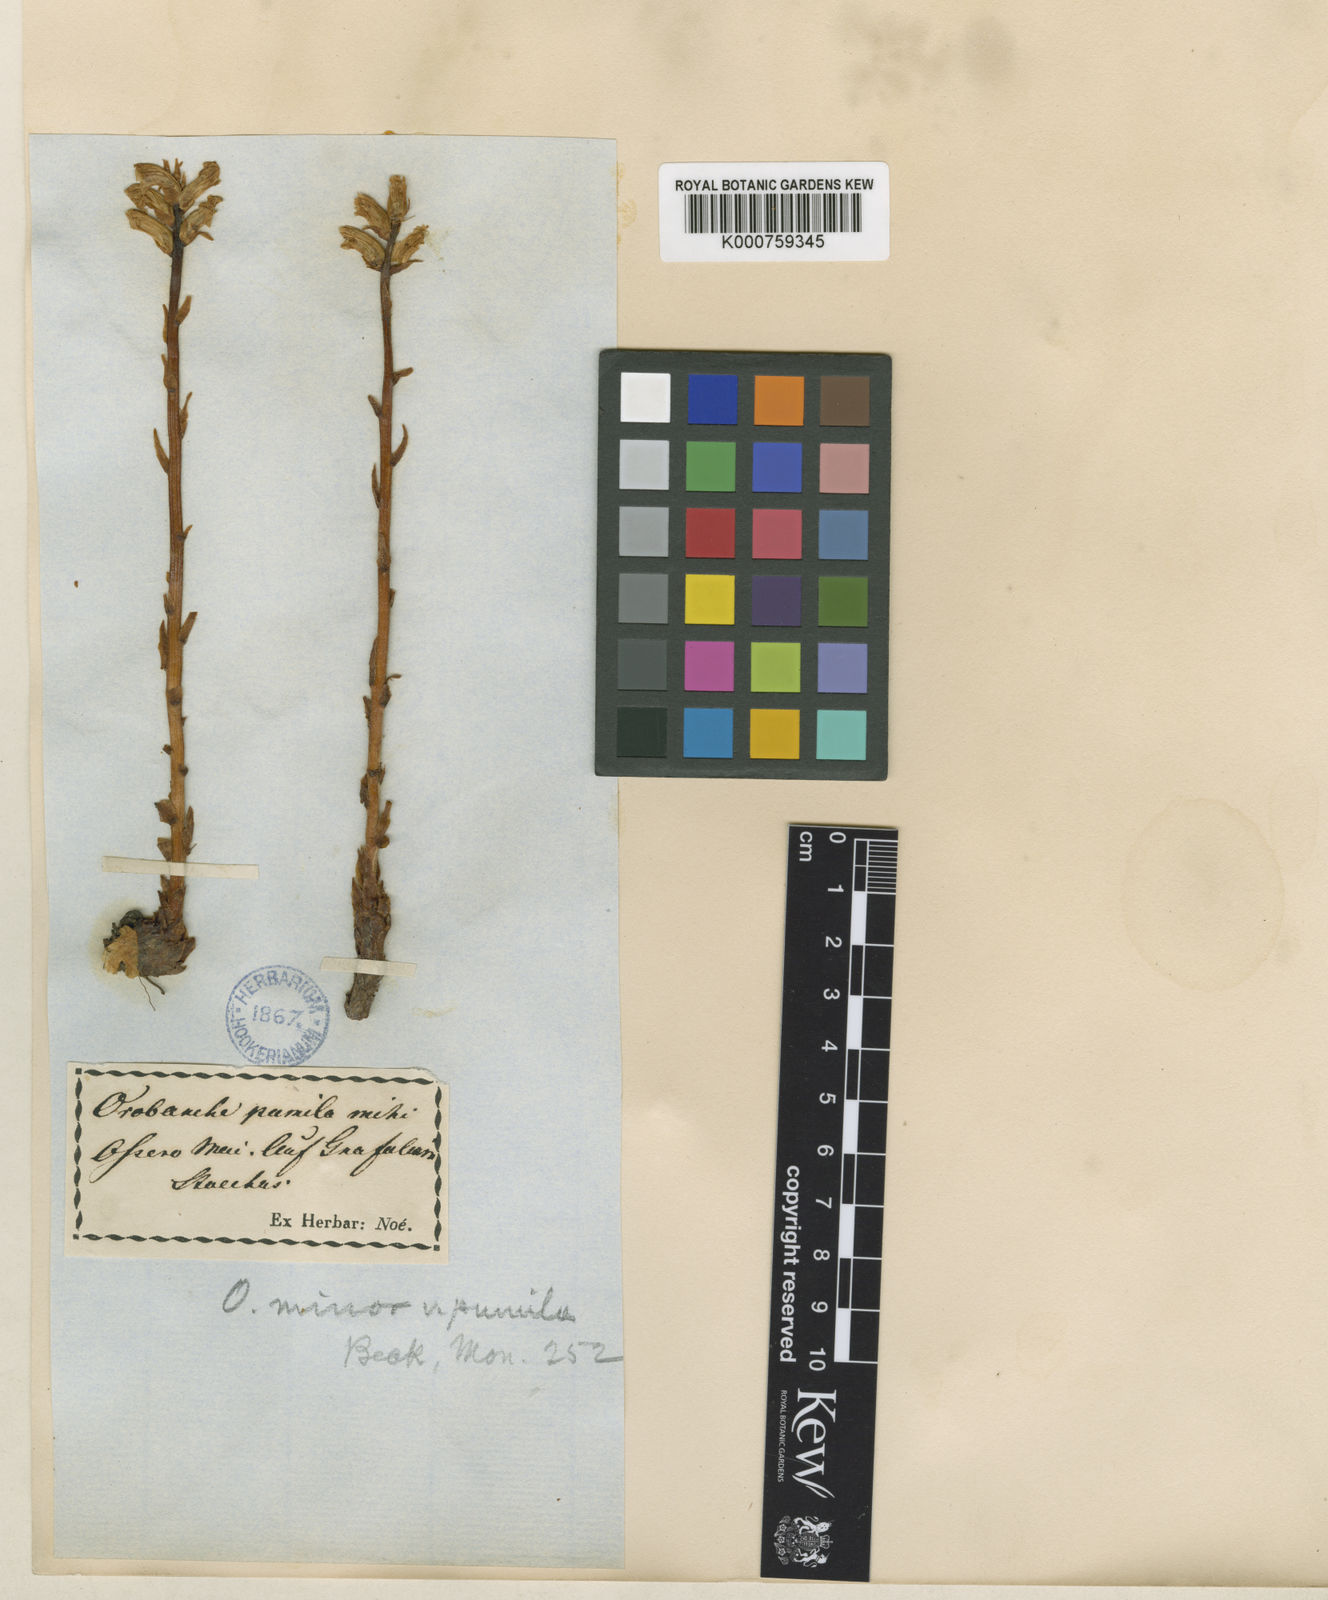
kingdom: Plantae
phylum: Tracheophyta
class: Magnoliopsida
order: Lamiales
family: Orobanchaceae
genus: Orobanche
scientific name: Orobanche minor
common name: Common broomrape
